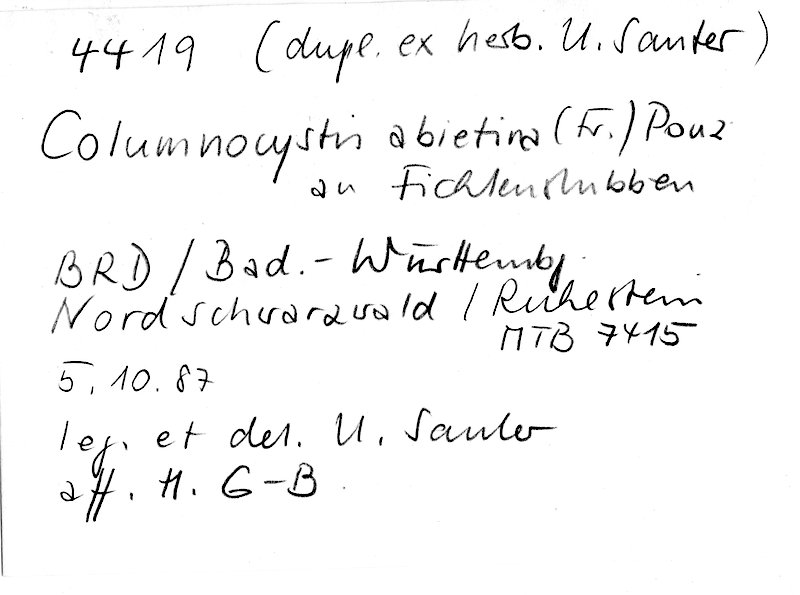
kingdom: Plantae
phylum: Tracheophyta
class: Pinopsida
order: Pinales
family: Pinaceae
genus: Picea
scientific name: Picea
